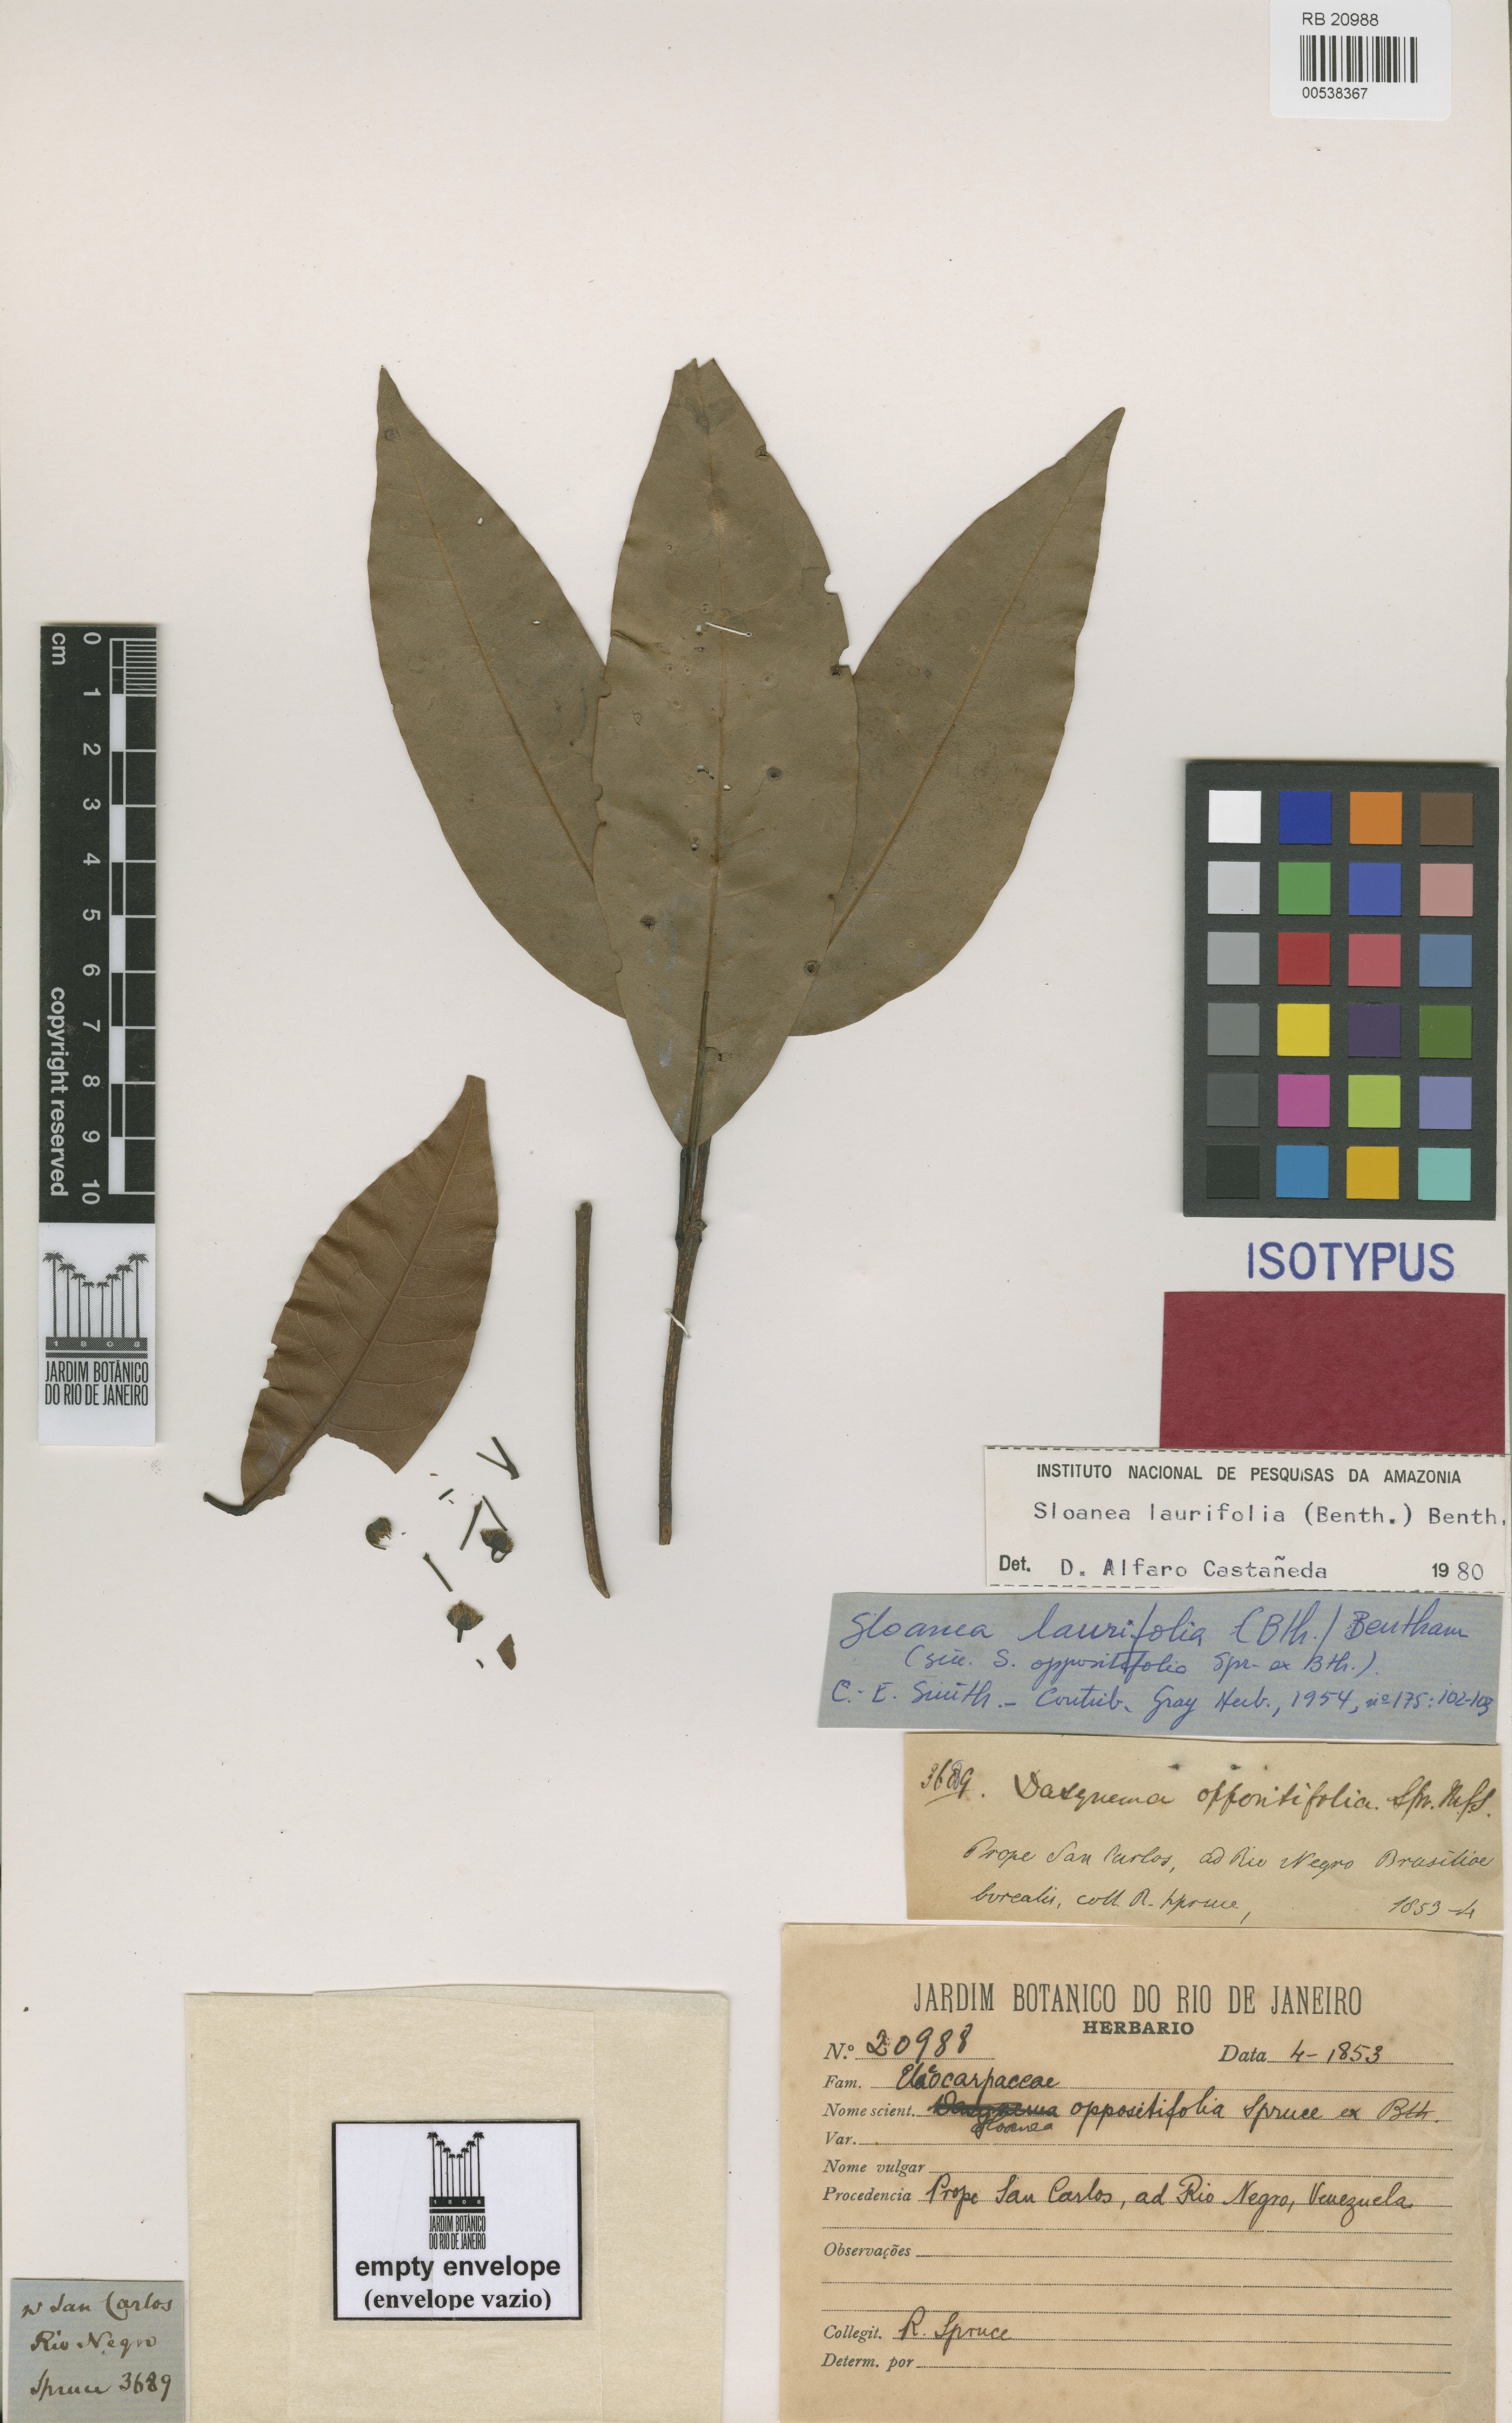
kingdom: Plantae
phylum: Tracheophyta
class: Magnoliopsida
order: Oxalidales
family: Elaeocarpaceae
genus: Sloanea
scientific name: Sloanea laurifolia
